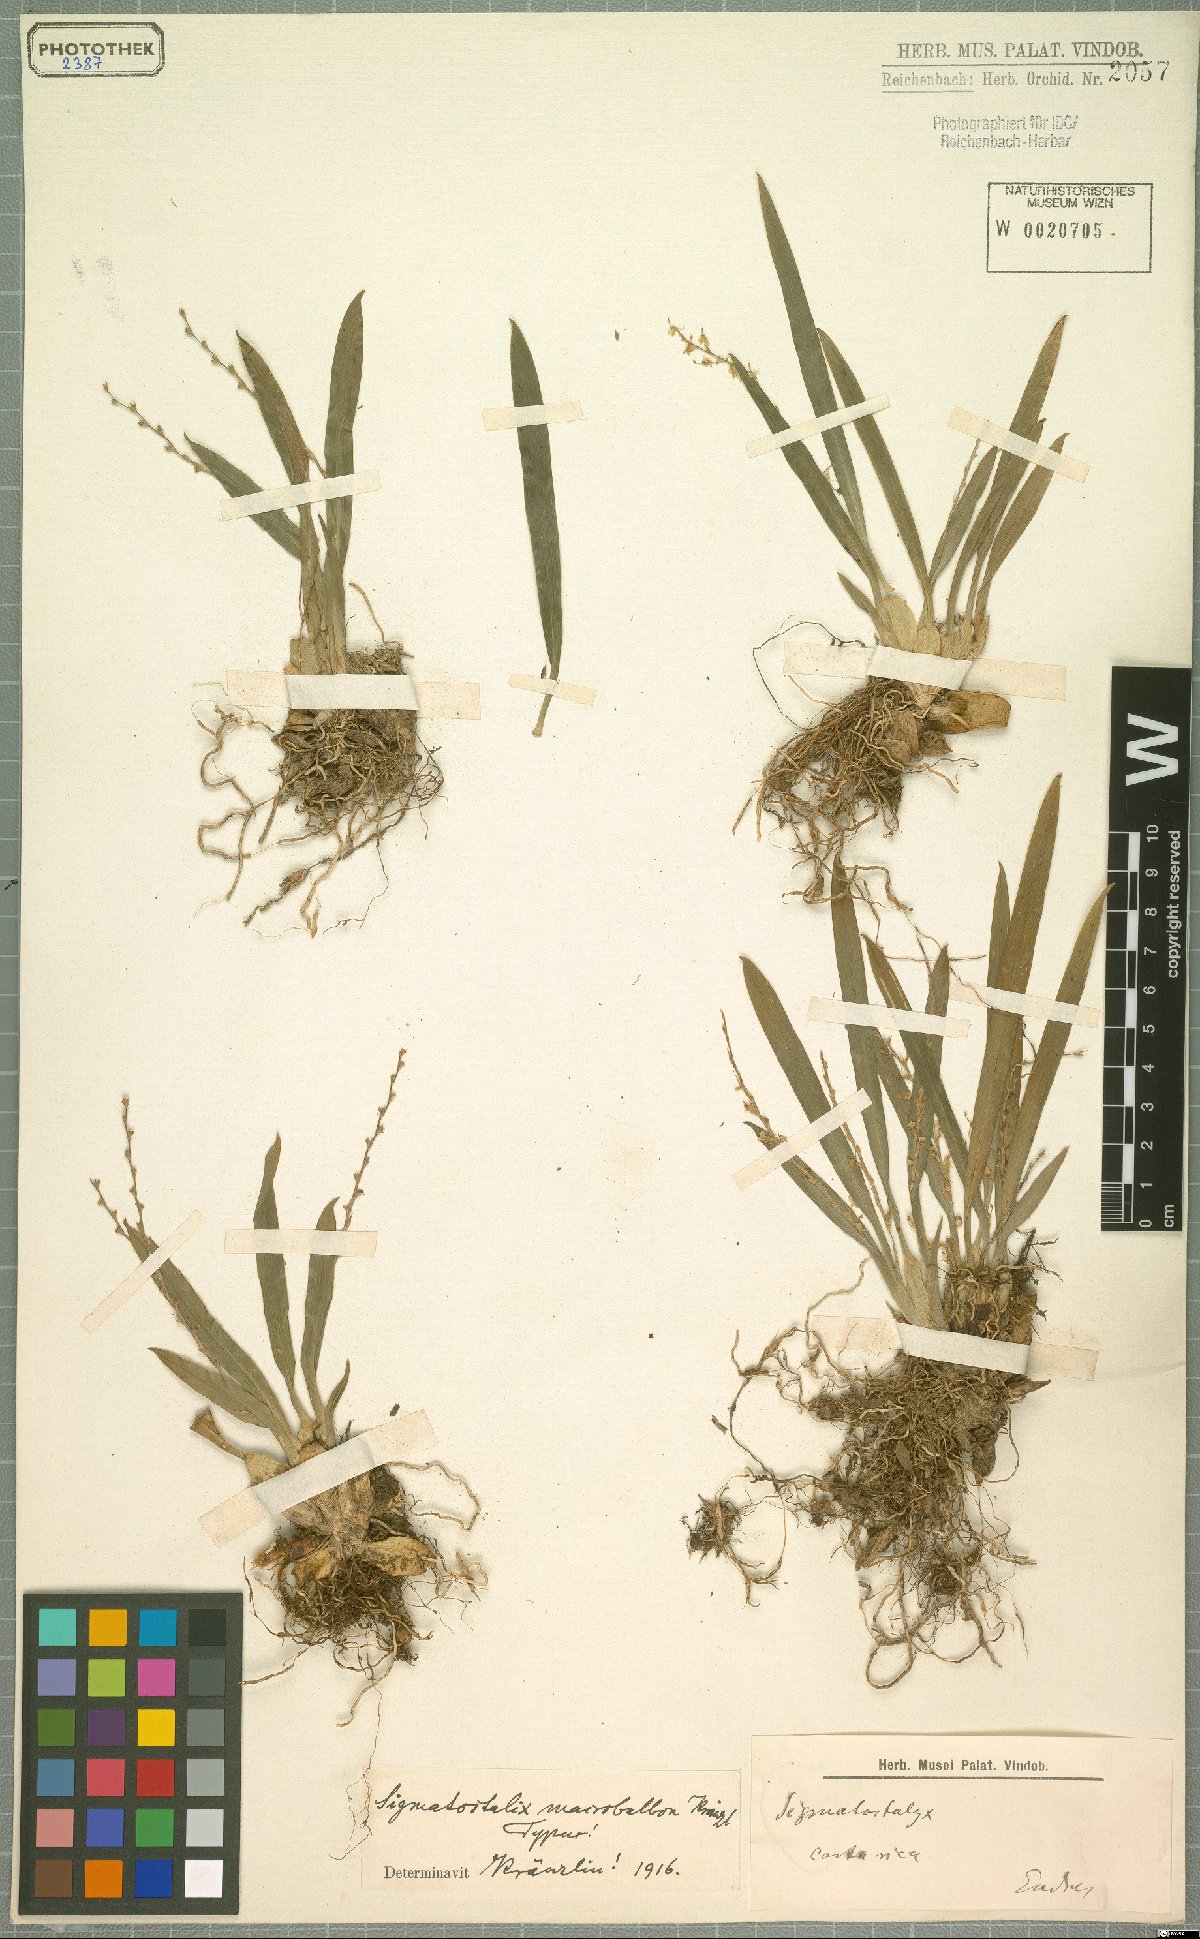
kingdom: Plantae
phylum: Tracheophyta
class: Liliopsida
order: Asparagales
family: Orchidaceae
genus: Oncidium
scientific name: Oncidium macrobulbon
